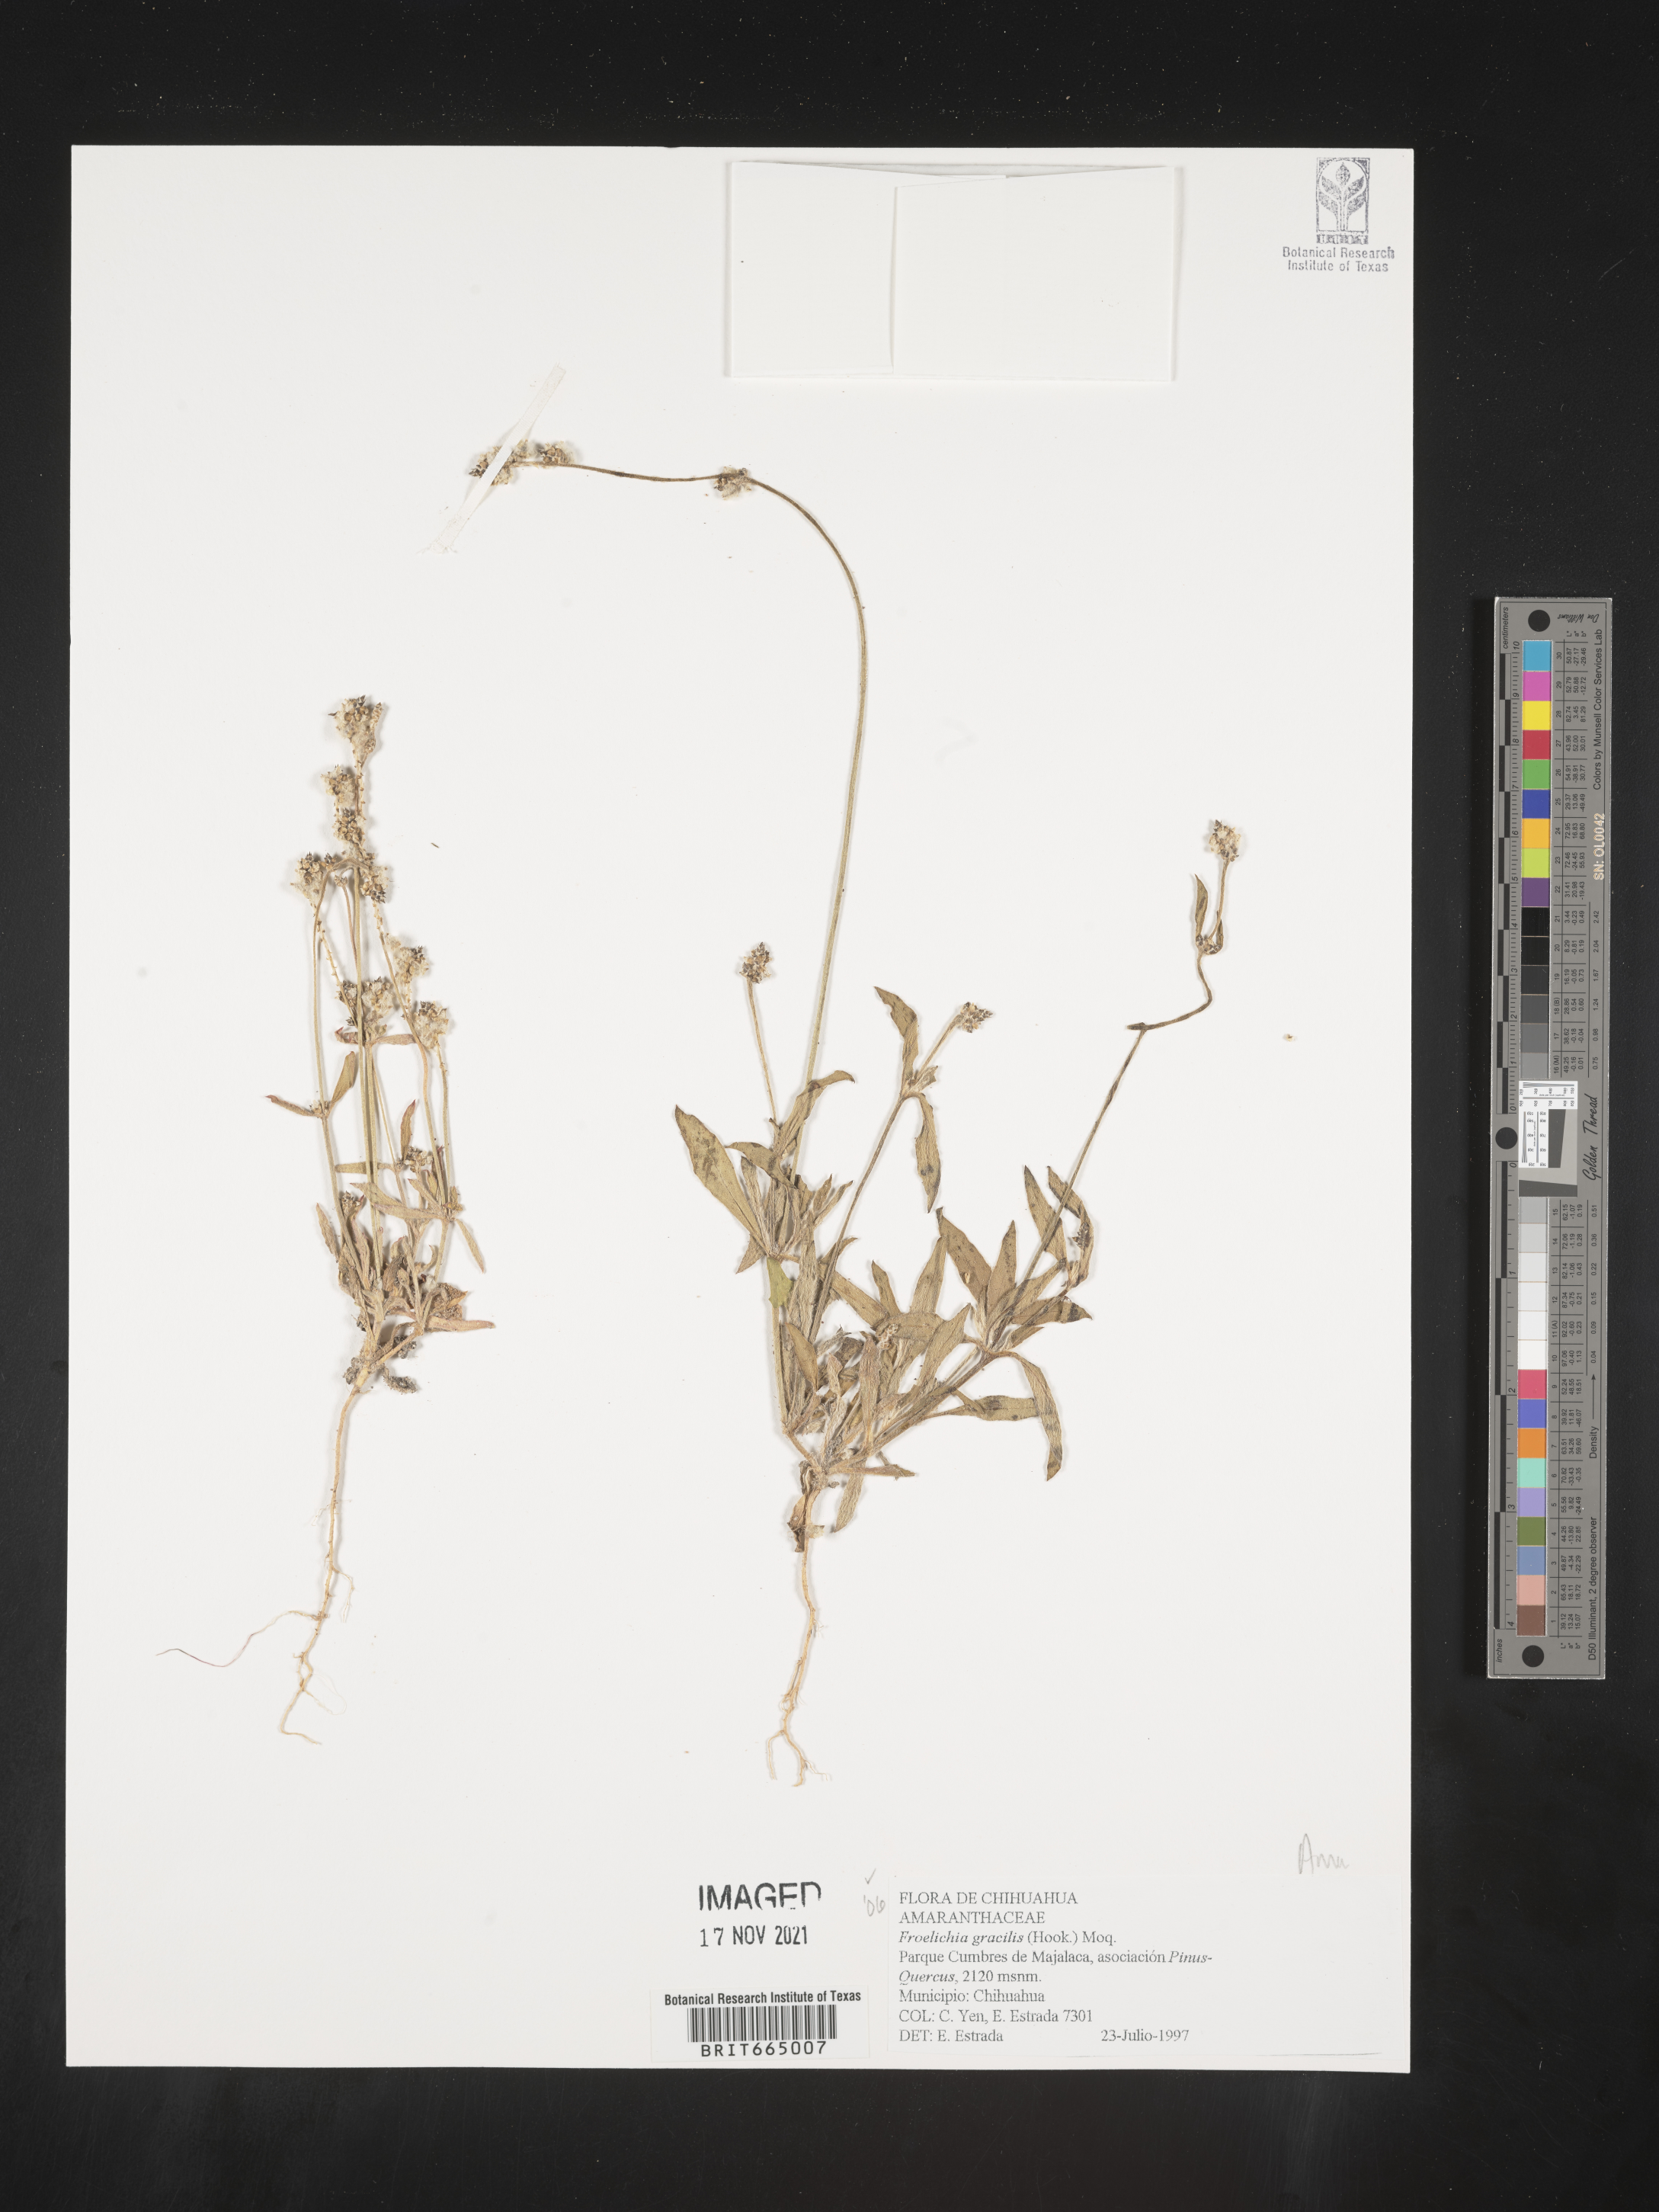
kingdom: Plantae
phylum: Tracheophyta
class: Magnoliopsida
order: Caryophyllales
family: Amaranthaceae
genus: Froelichia
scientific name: Froelichia
